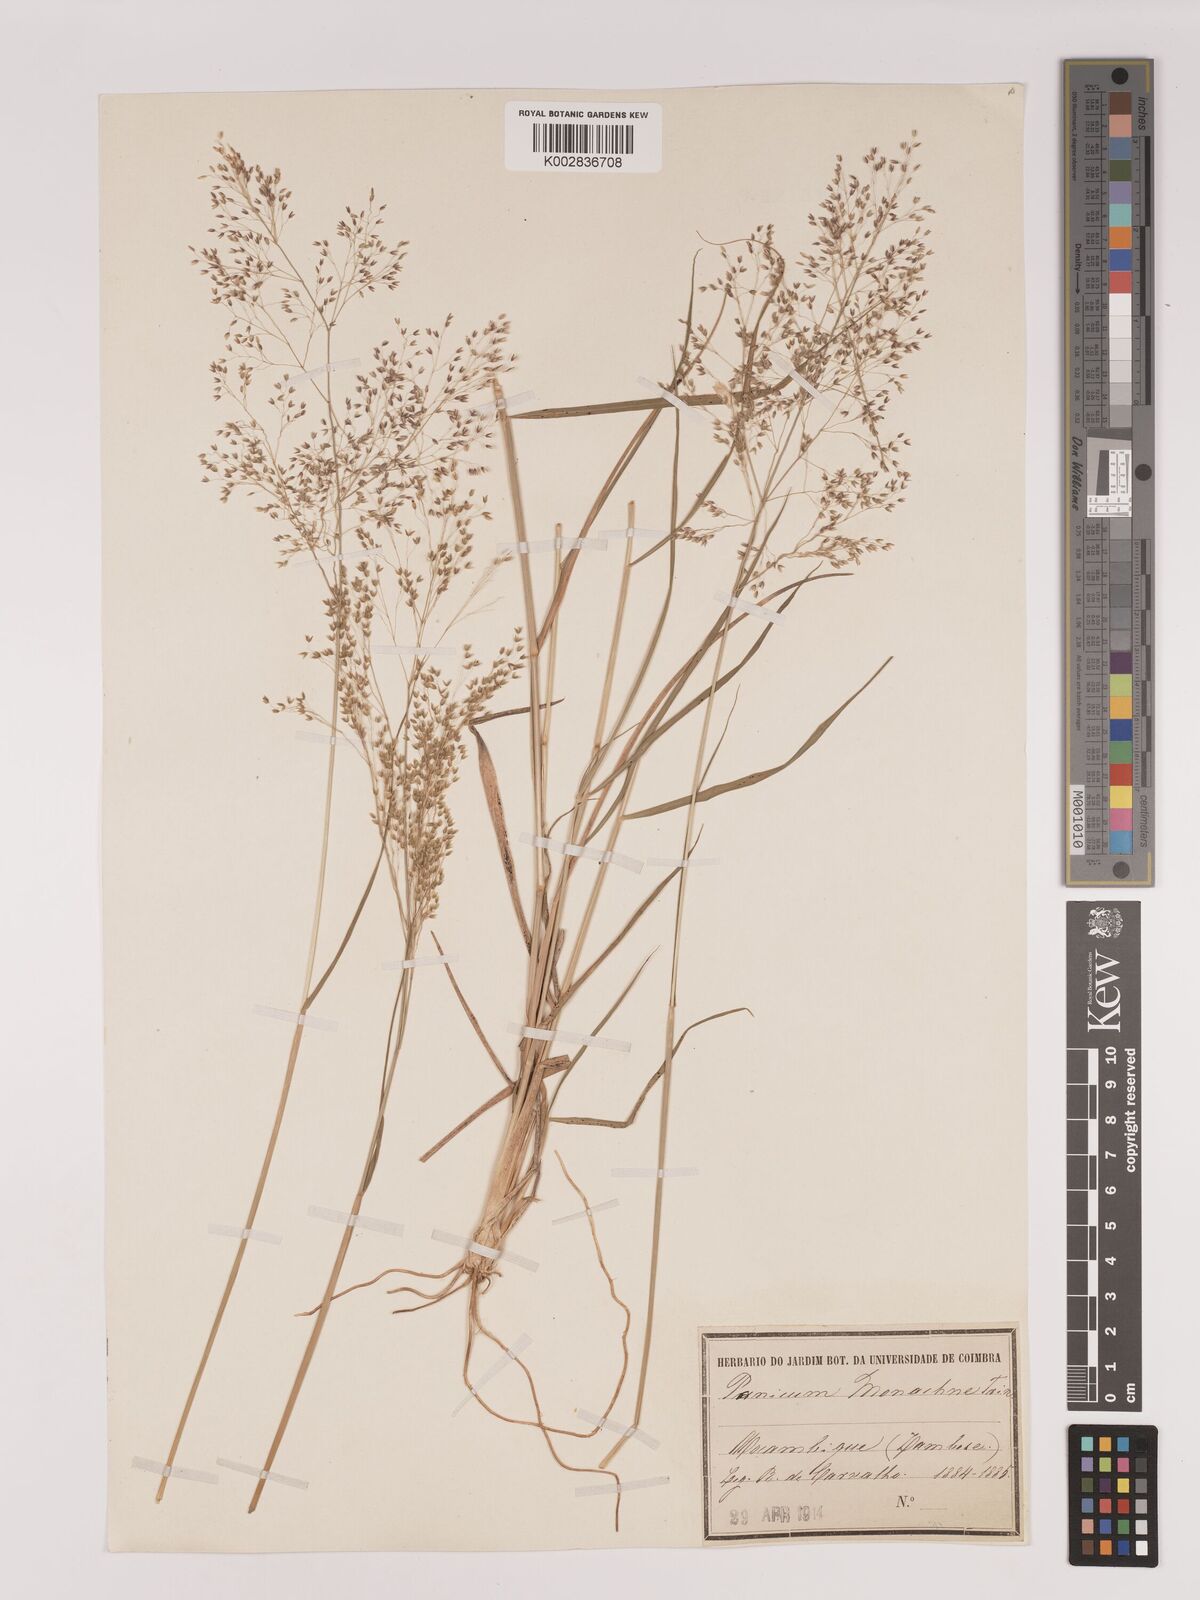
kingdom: Plantae
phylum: Tracheophyta
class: Liliopsida
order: Poales
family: Poaceae
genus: Tricholaena
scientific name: Tricholaena monachne
